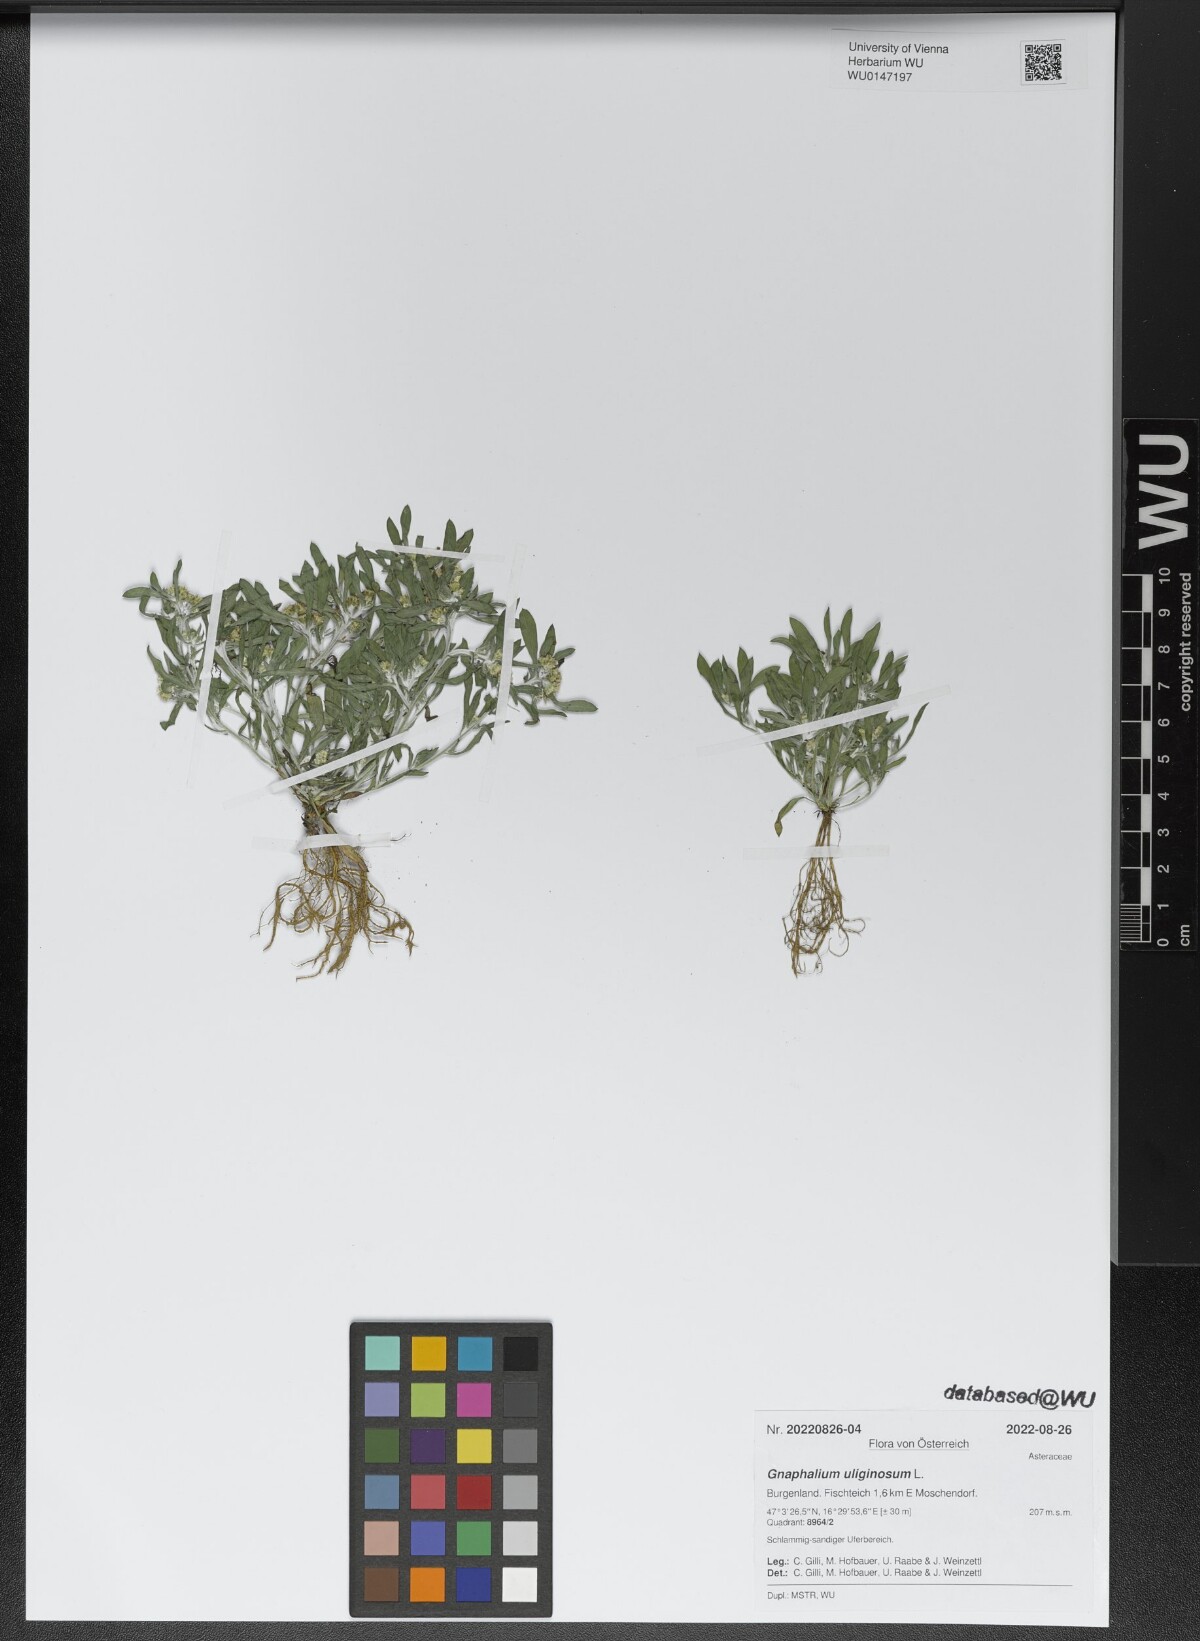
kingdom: Plantae
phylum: Tracheophyta
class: Magnoliopsida
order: Asterales
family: Asteraceae
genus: Gnaphalium
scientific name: Gnaphalium uliginosum
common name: Marsh cudweed
